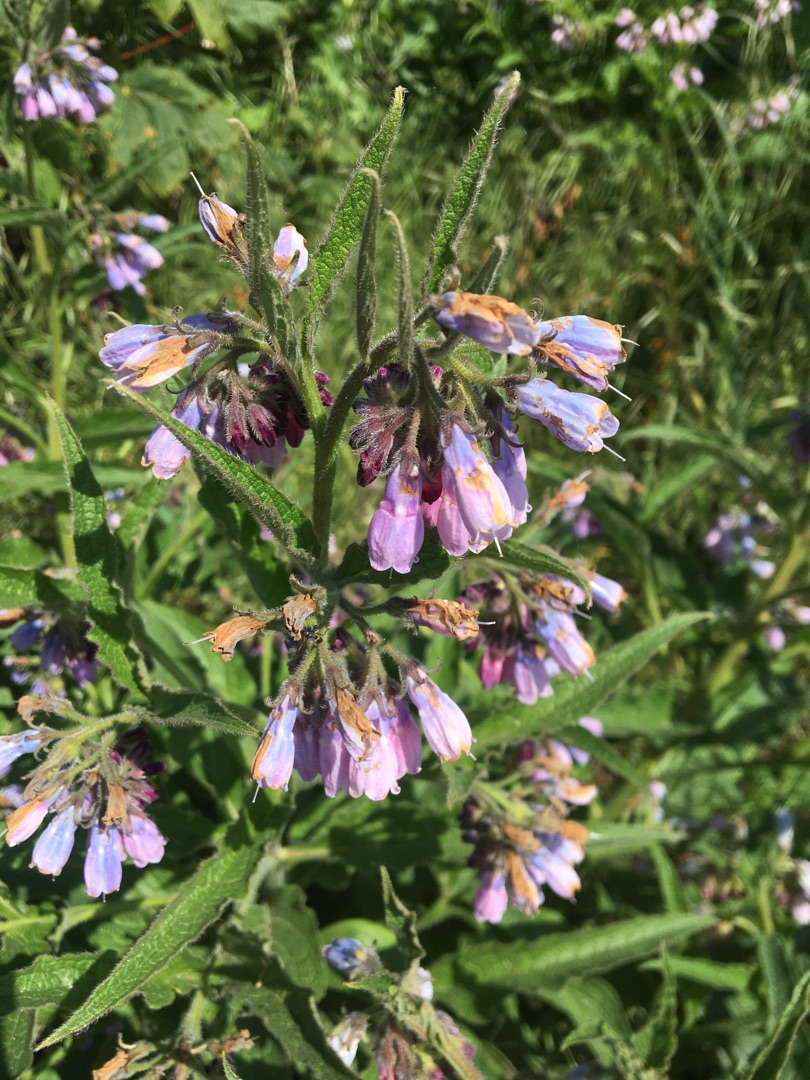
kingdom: Plantae
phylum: Tracheophyta
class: Magnoliopsida
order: Boraginales
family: Boraginaceae
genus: Symphytum
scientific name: Symphytum uplandicum
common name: Foder-kulsukker
